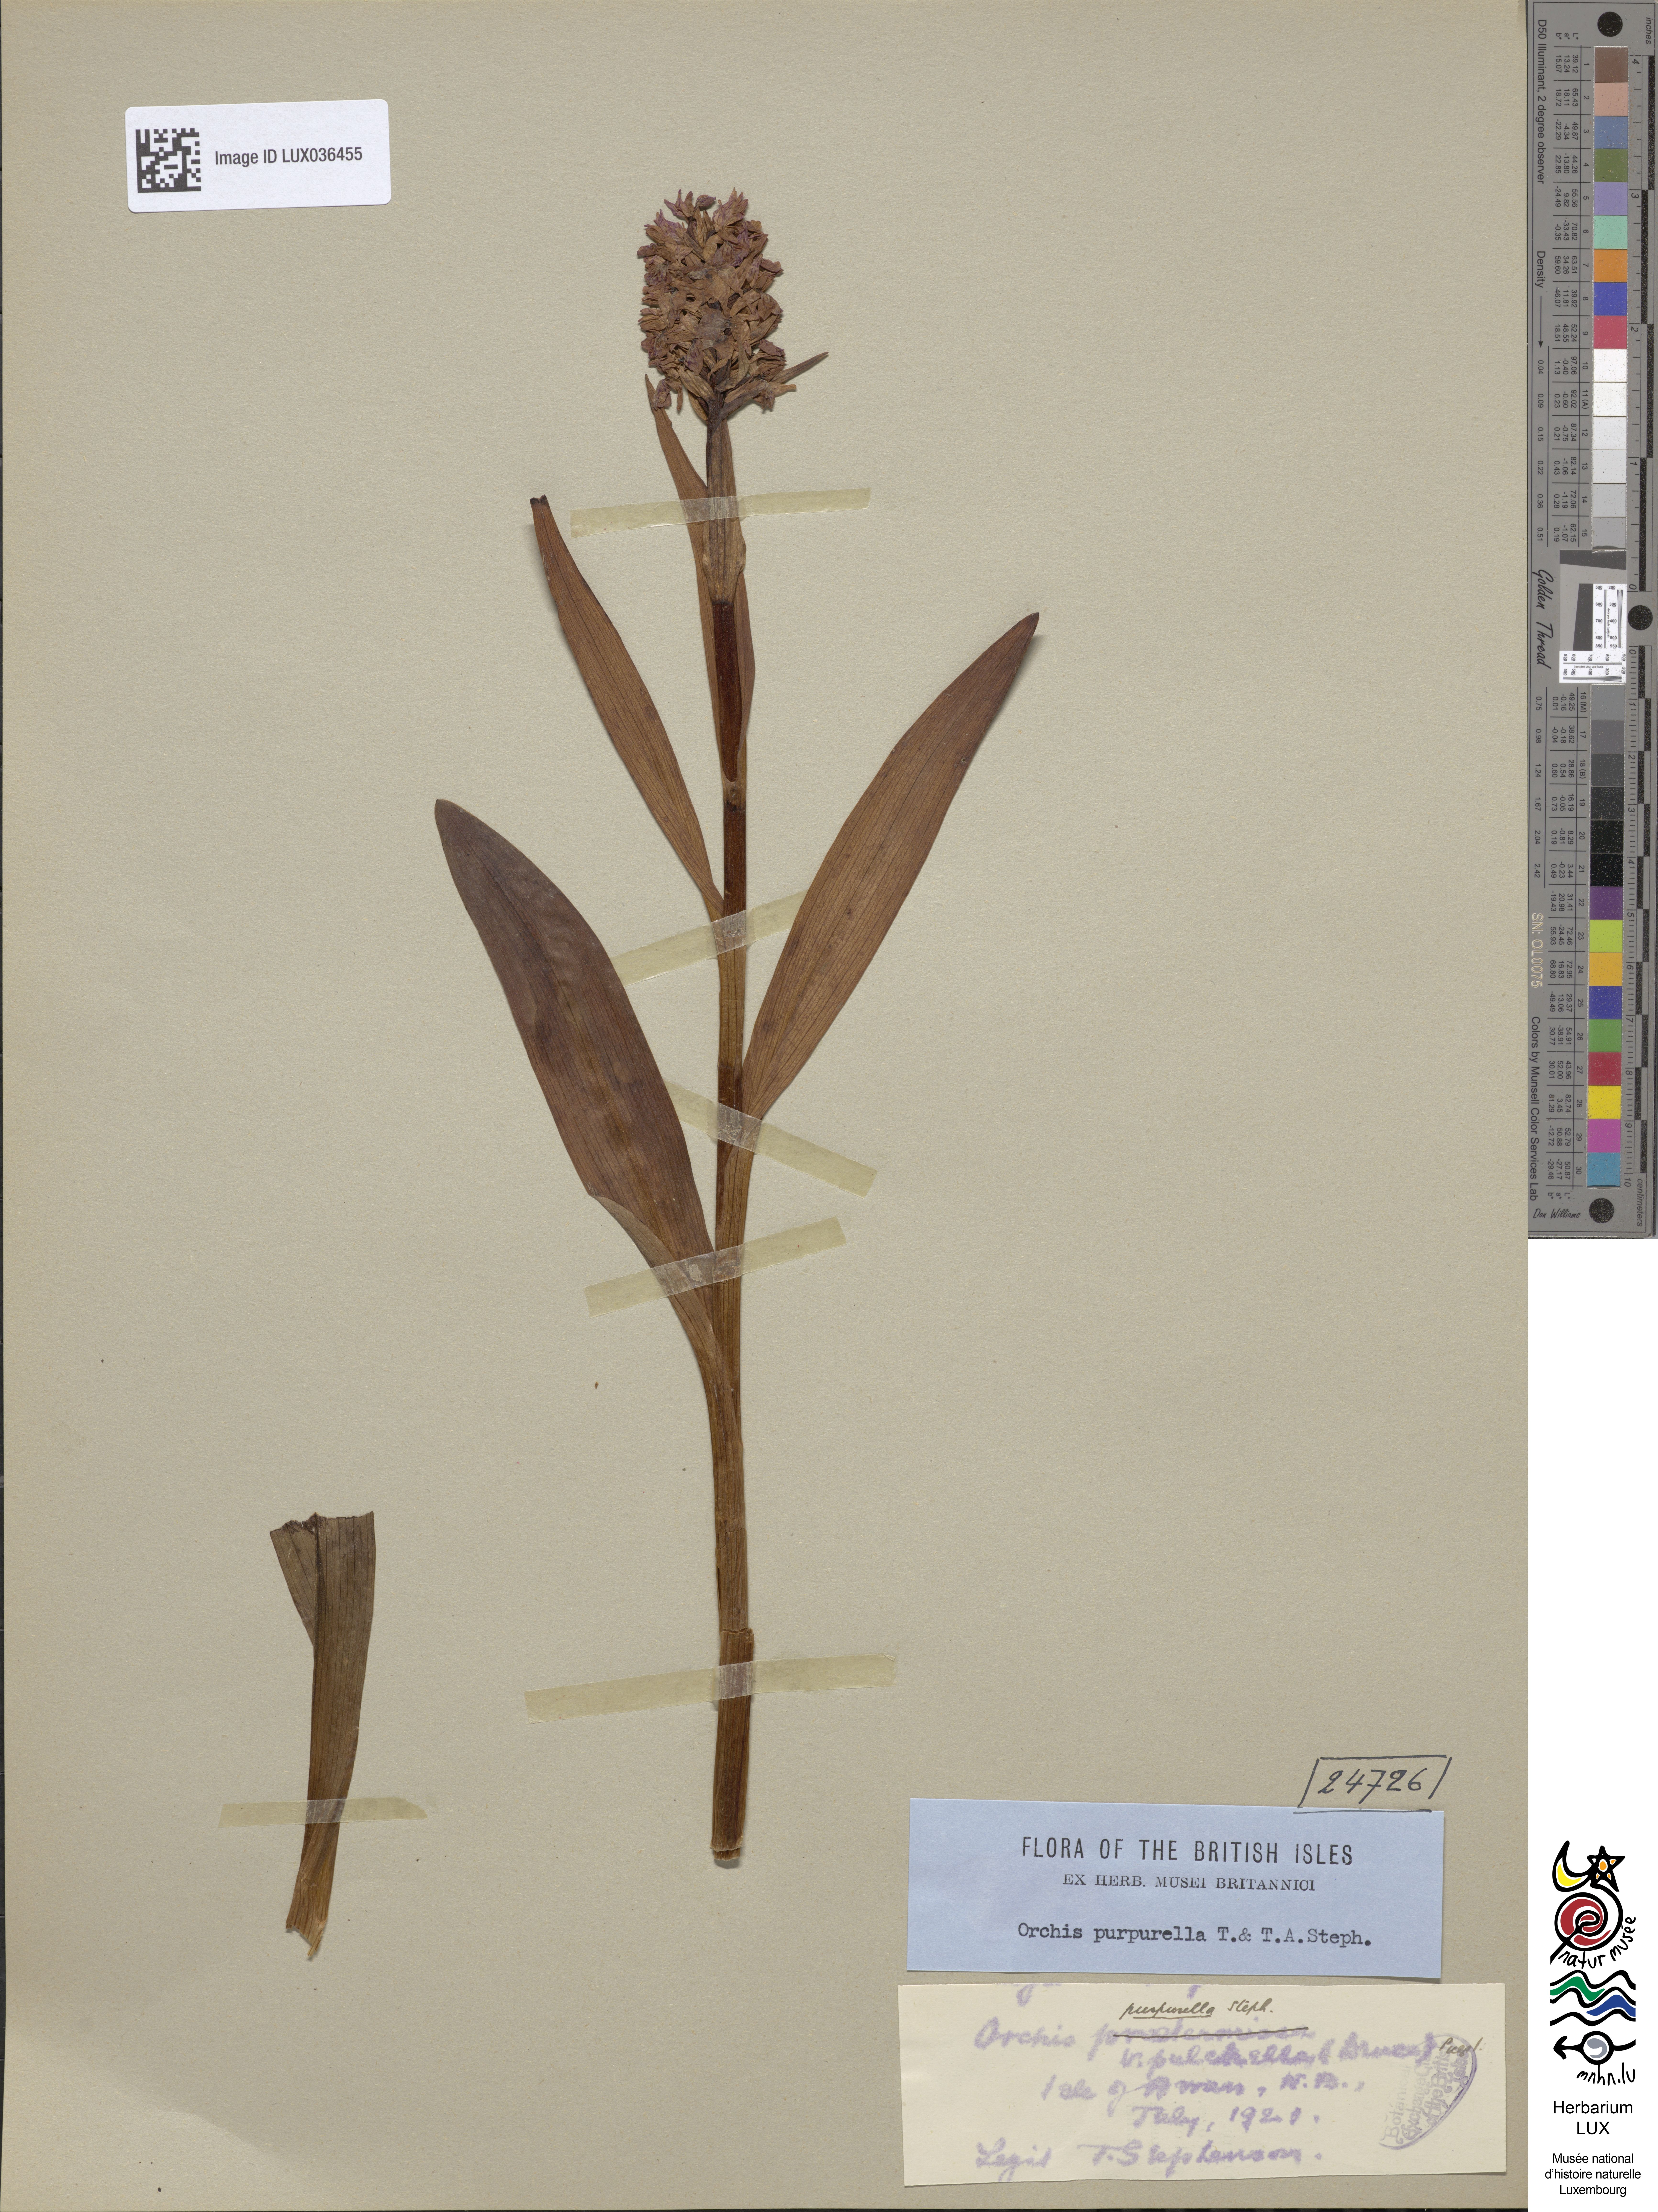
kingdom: Plantae
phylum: Tracheophyta
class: Liliopsida
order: Asparagales
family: Orchidaceae
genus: Dactylorhiza
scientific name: Dactylorhiza majalis
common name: Marsh orchid
